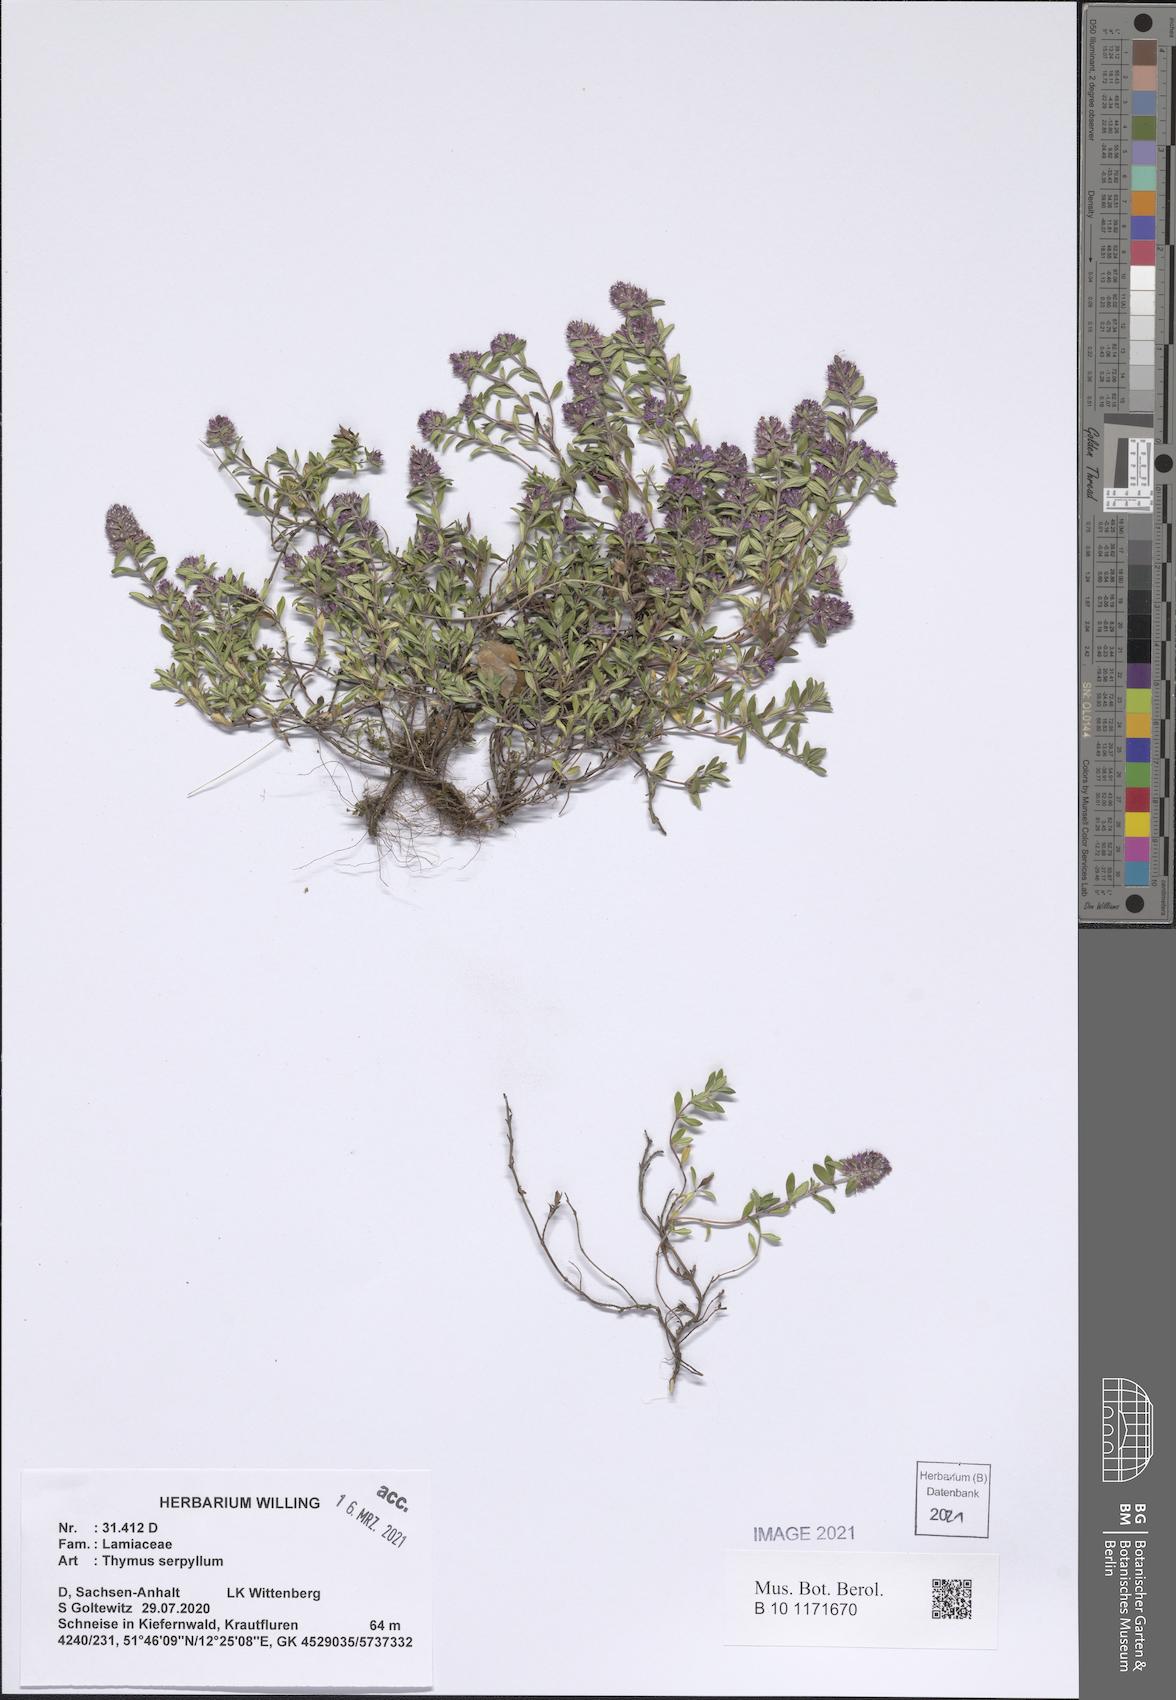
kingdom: Plantae
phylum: Tracheophyta
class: Magnoliopsida
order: Lamiales
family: Lamiaceae
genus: Thymus
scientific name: Thymus serpyllum
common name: Breckland thyme
